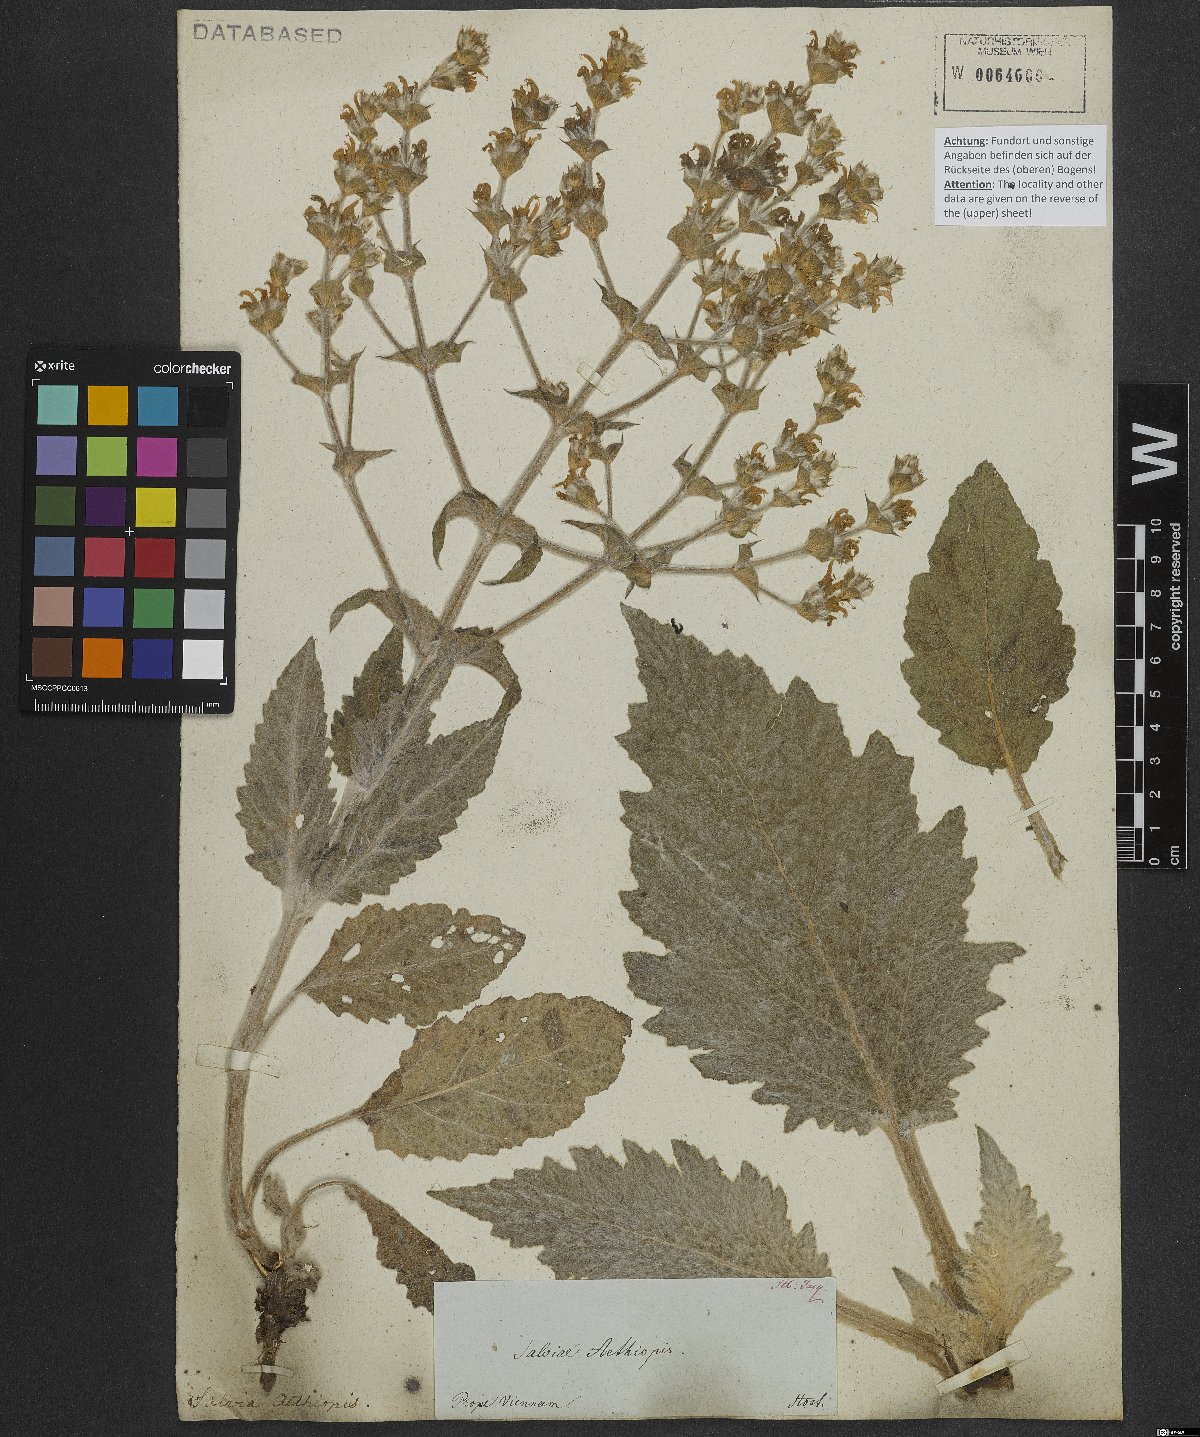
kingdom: Plantae
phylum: Tracheophyta
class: Magnoliopsida
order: Lamiales
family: Lamiaceae
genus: Salvia
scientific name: Salvia aethiopis
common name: Mediterranean sage
